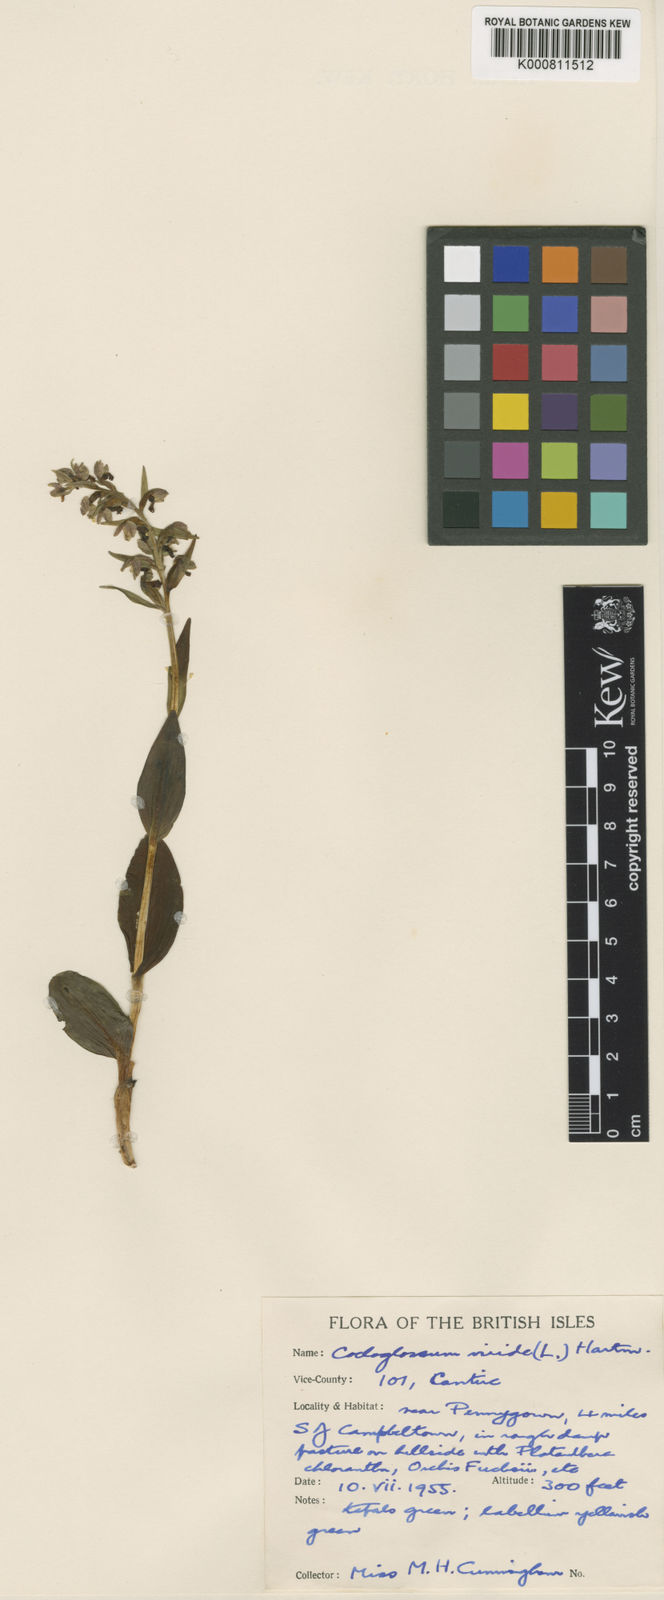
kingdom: Plantae
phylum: Tracheophyta
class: Liliopsida
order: Asparagales
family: Orchidaceae
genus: Dactylorhiza
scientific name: Dactylorhiza viridis
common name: Longbract frog orchid
